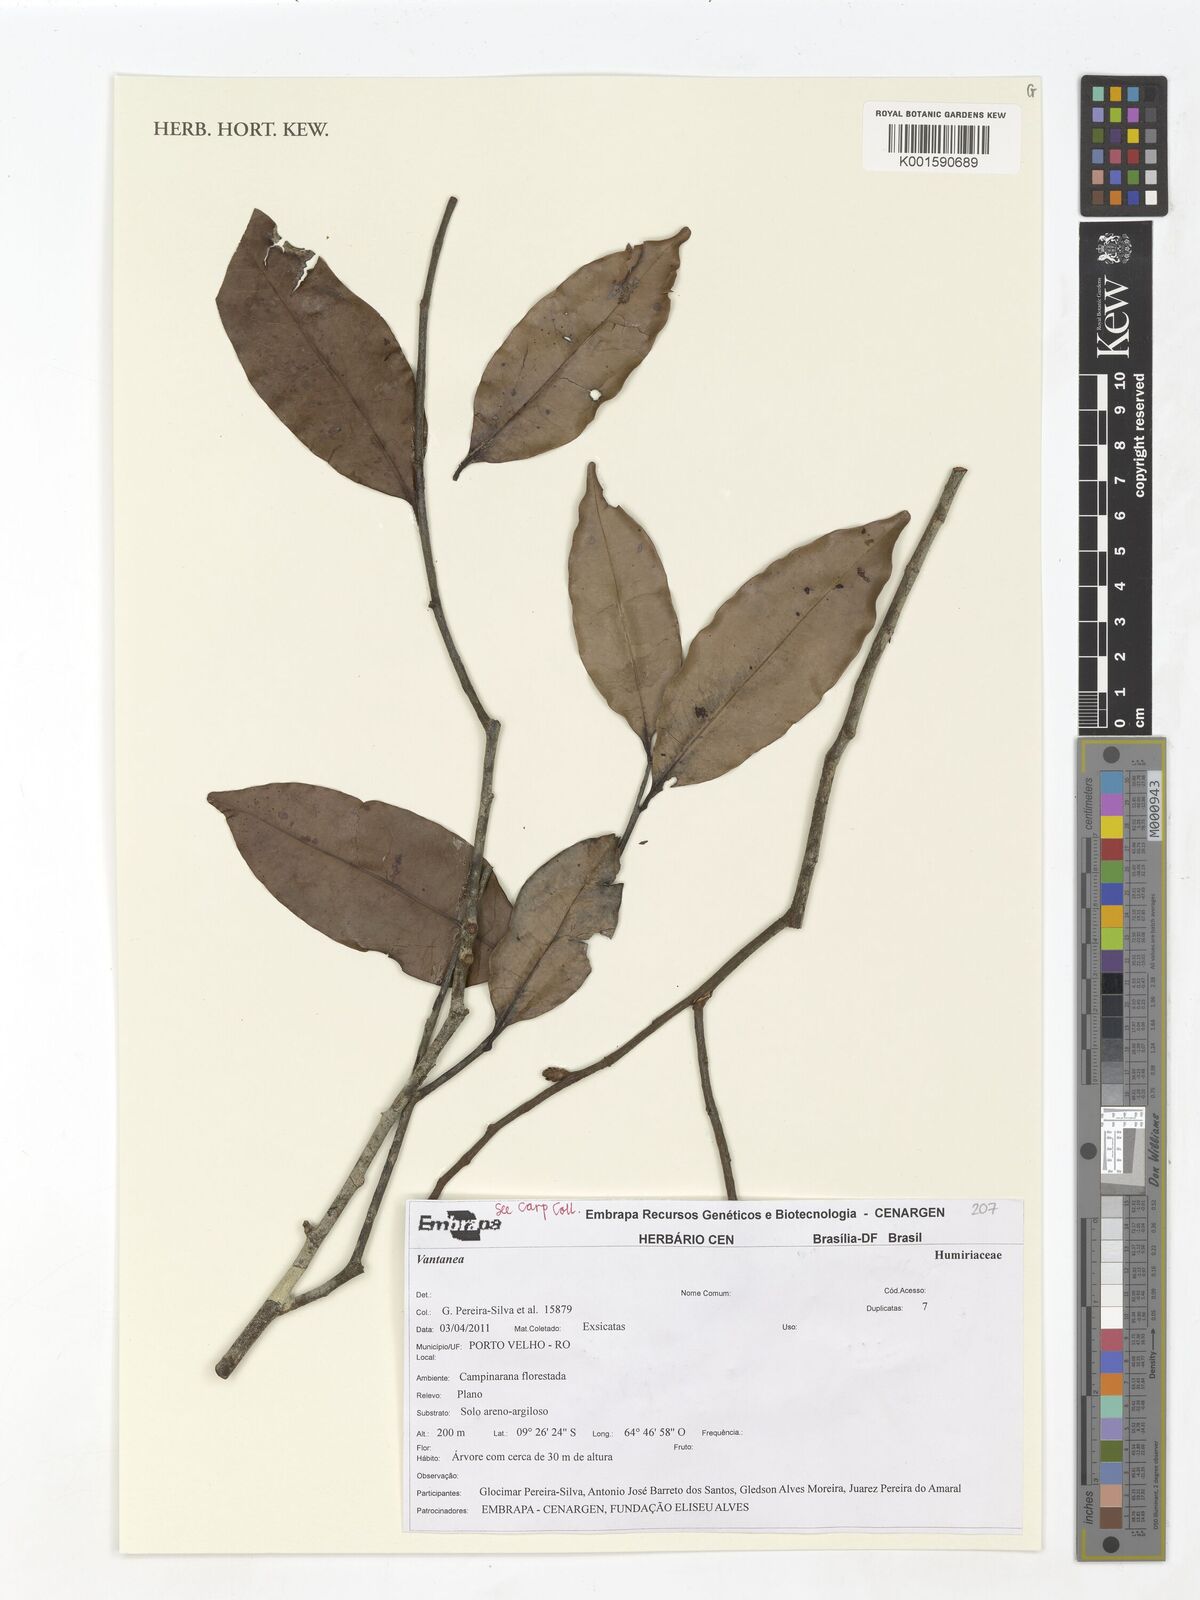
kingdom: Plantae
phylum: Tracheophyta
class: Magnoliopsida
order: Malpighiales
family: Humiriaceae
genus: Vantanea
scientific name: Vantanea
